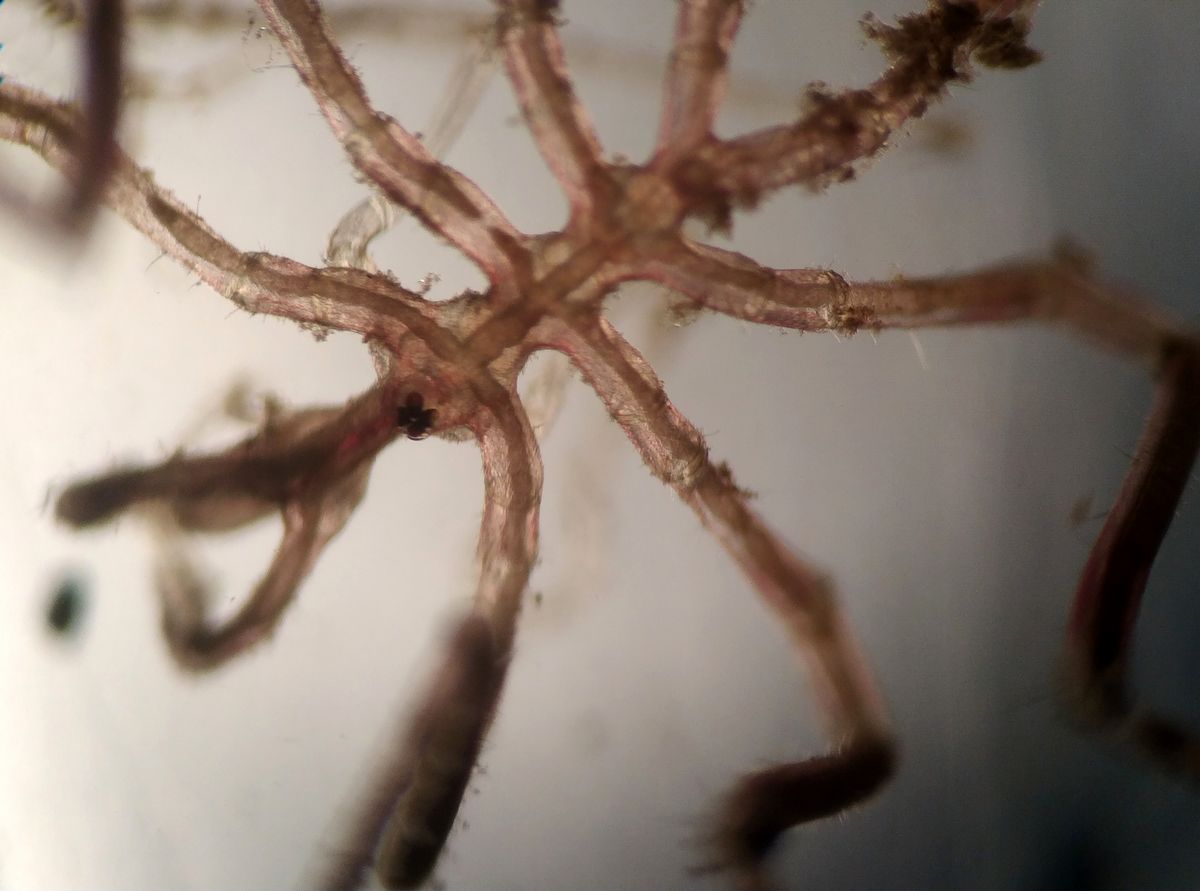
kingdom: Animalia
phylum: Arthropoda
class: Pycnogonida
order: Pantopoda
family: Nymphonidae
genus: Nymphon
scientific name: Nymphon micronyx
